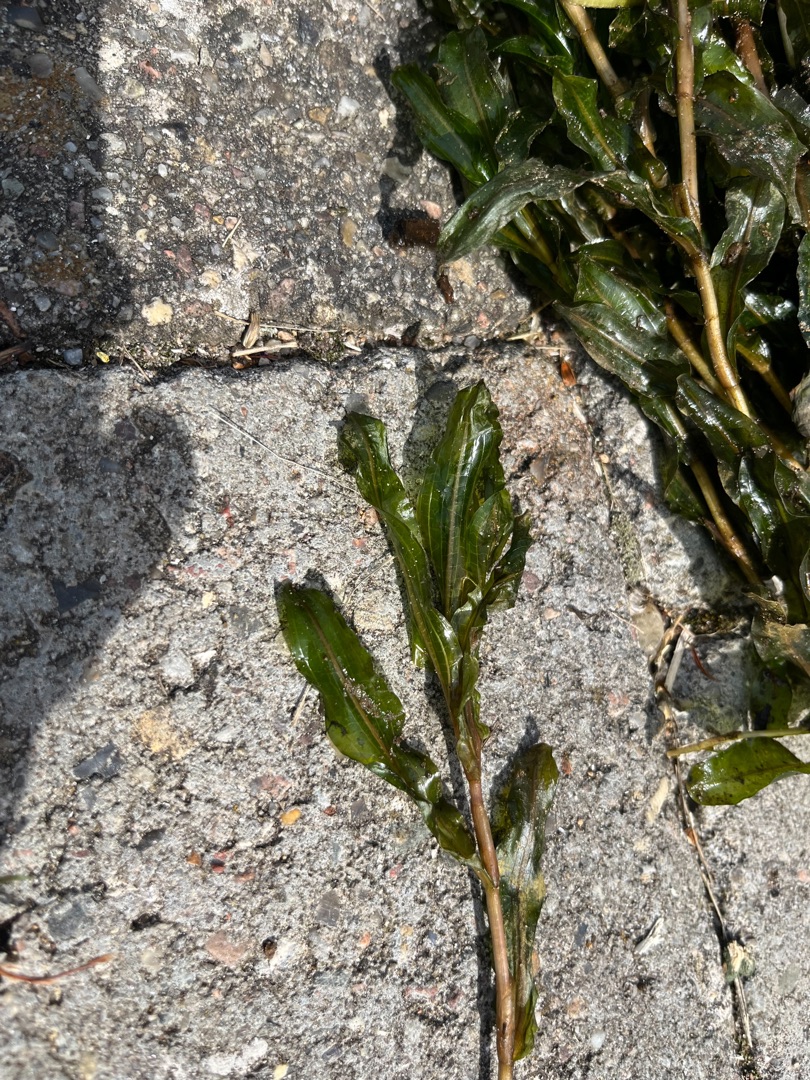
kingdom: Plantae
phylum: Tracheophyta
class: Liliopsida
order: Alismatales
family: Potamogetonaceae
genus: Potamogeton
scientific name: Potamogeton
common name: Kruset vandaks × langbladet vandaks
